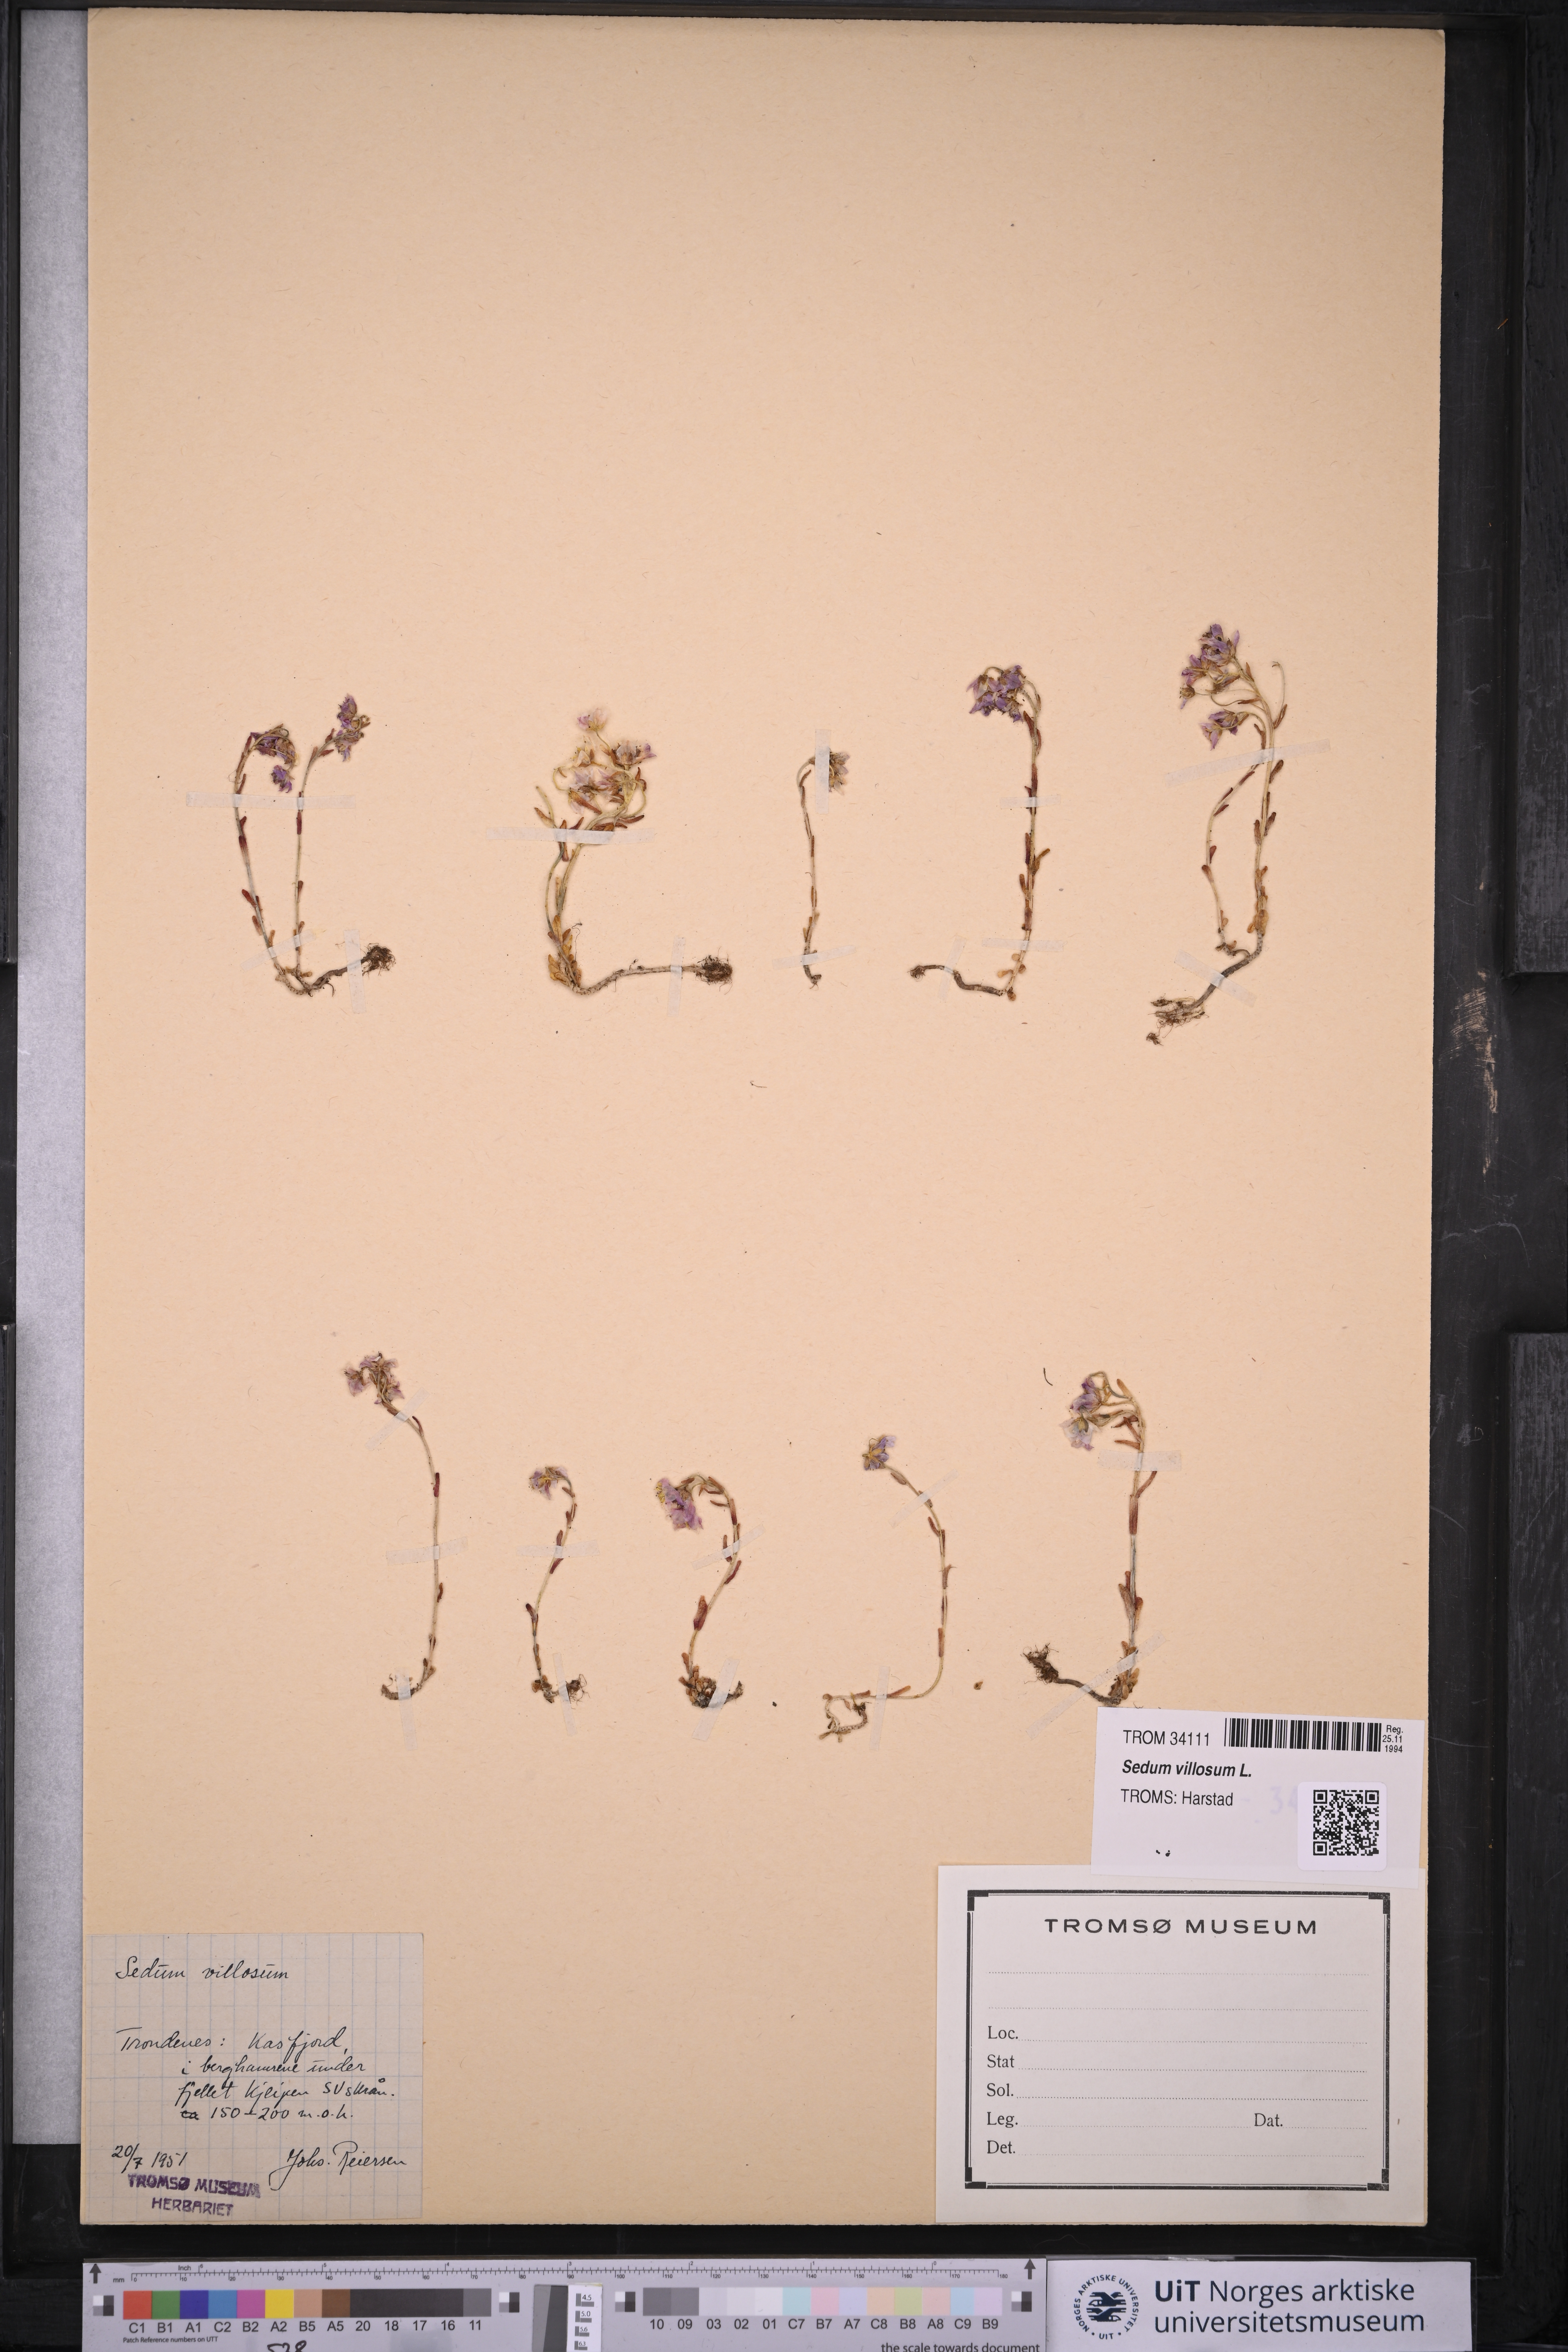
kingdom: Plantae
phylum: Tracheophyta
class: Magnoliopsida
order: Saxifragales
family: Crassulaceae
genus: Sedum
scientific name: Sedum villosum
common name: Hairy stonecrop
